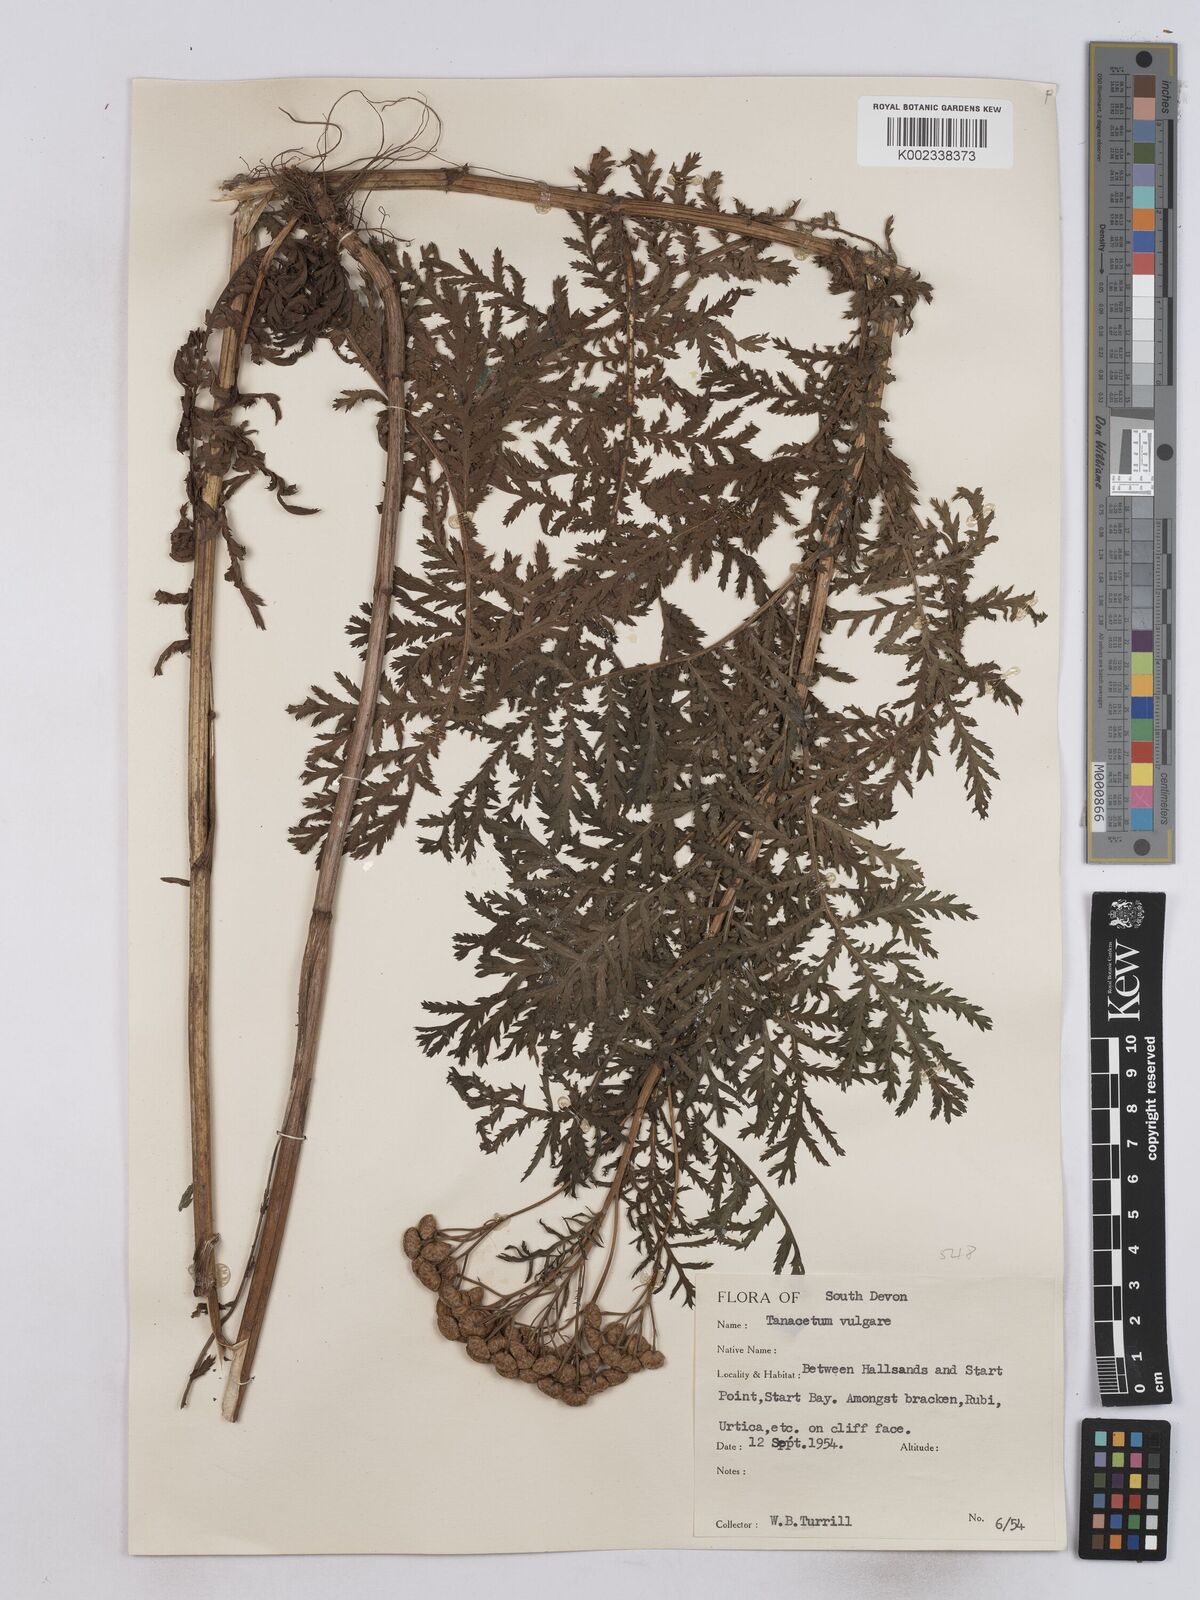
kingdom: Plantae
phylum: Tracheophyta
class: Magnoliopsida
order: Asterales
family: Asteraceae
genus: Tanacetum
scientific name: Tanacetum
